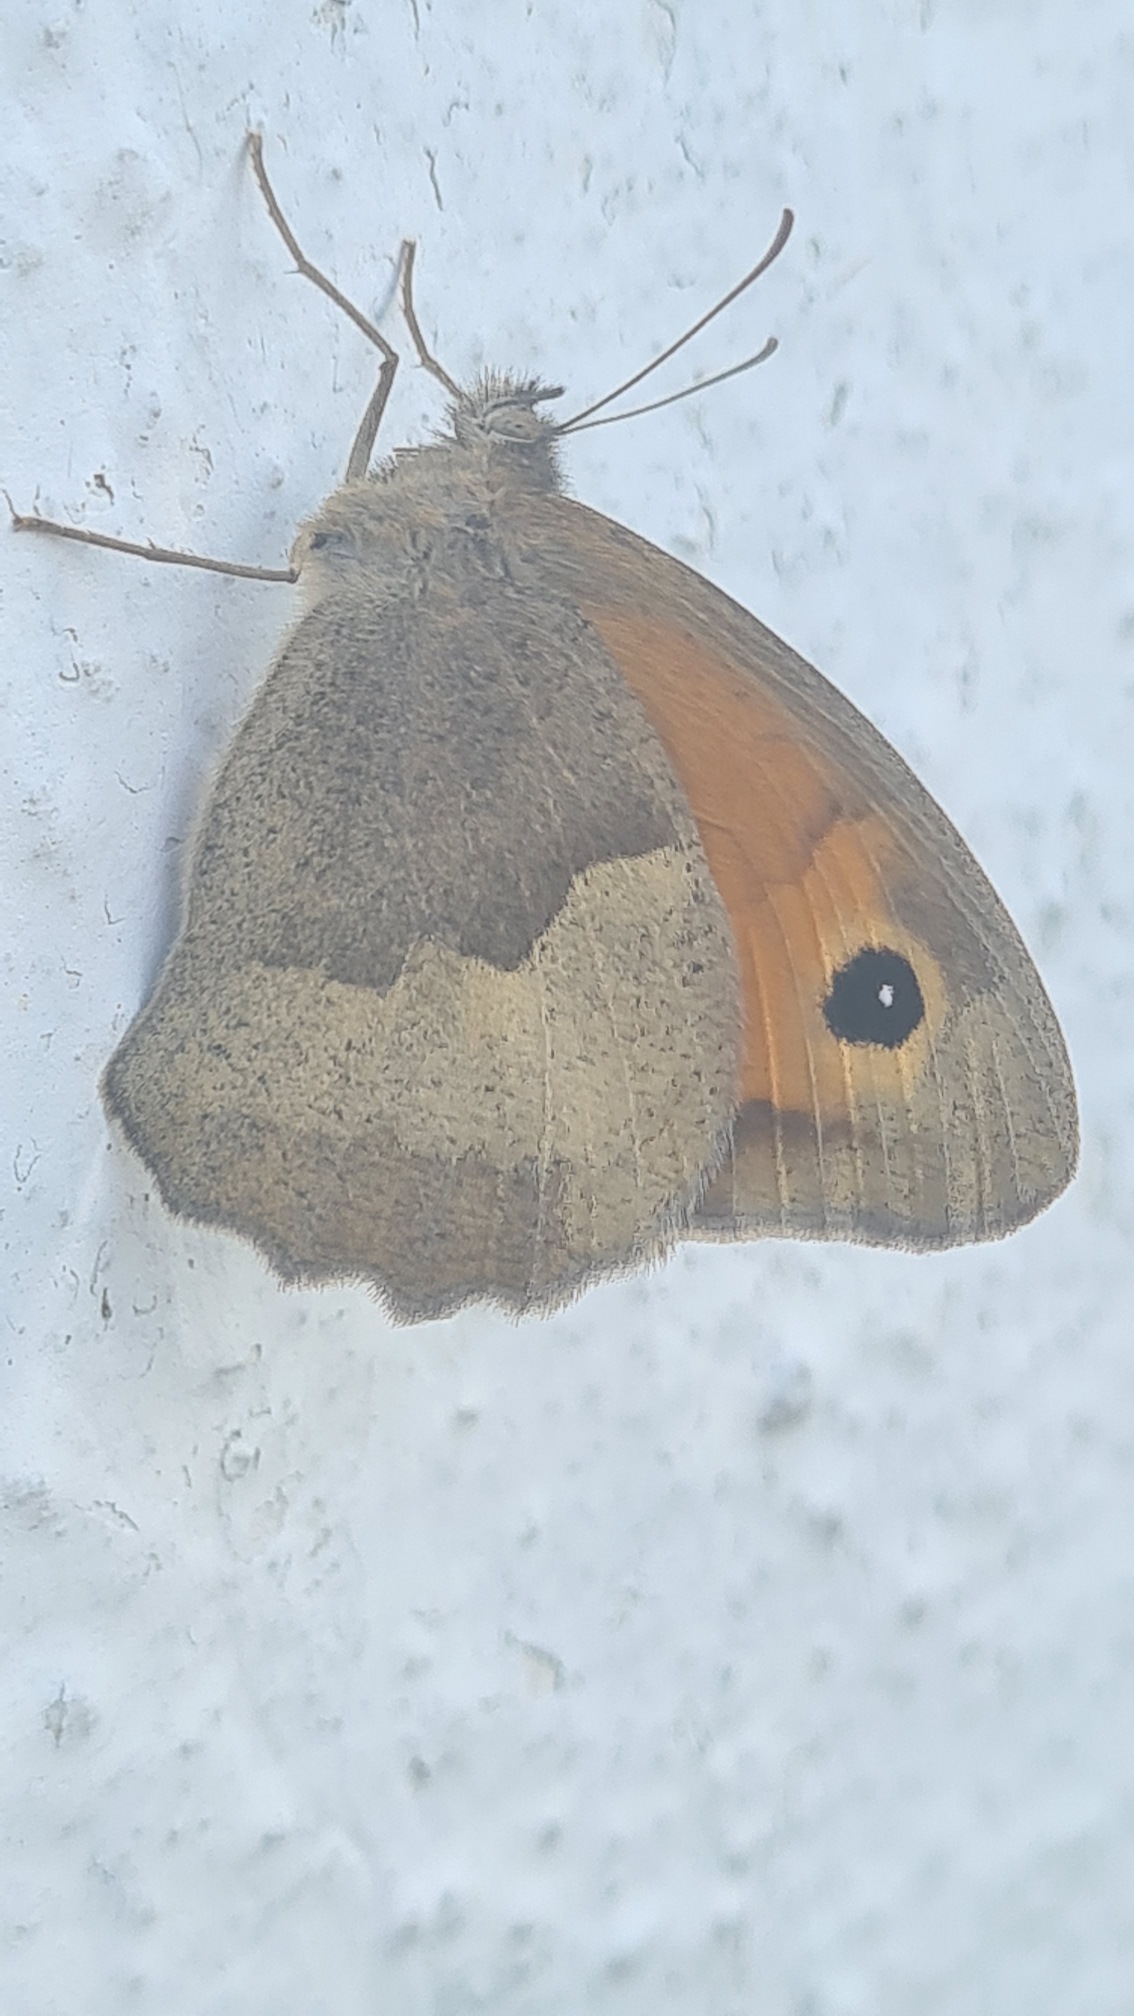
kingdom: Animalia
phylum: Arthropoda
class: Insecta
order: Lepidoptera
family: Nymphalidae
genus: Maniola
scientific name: Maniola jurtina
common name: Græsrandøje
